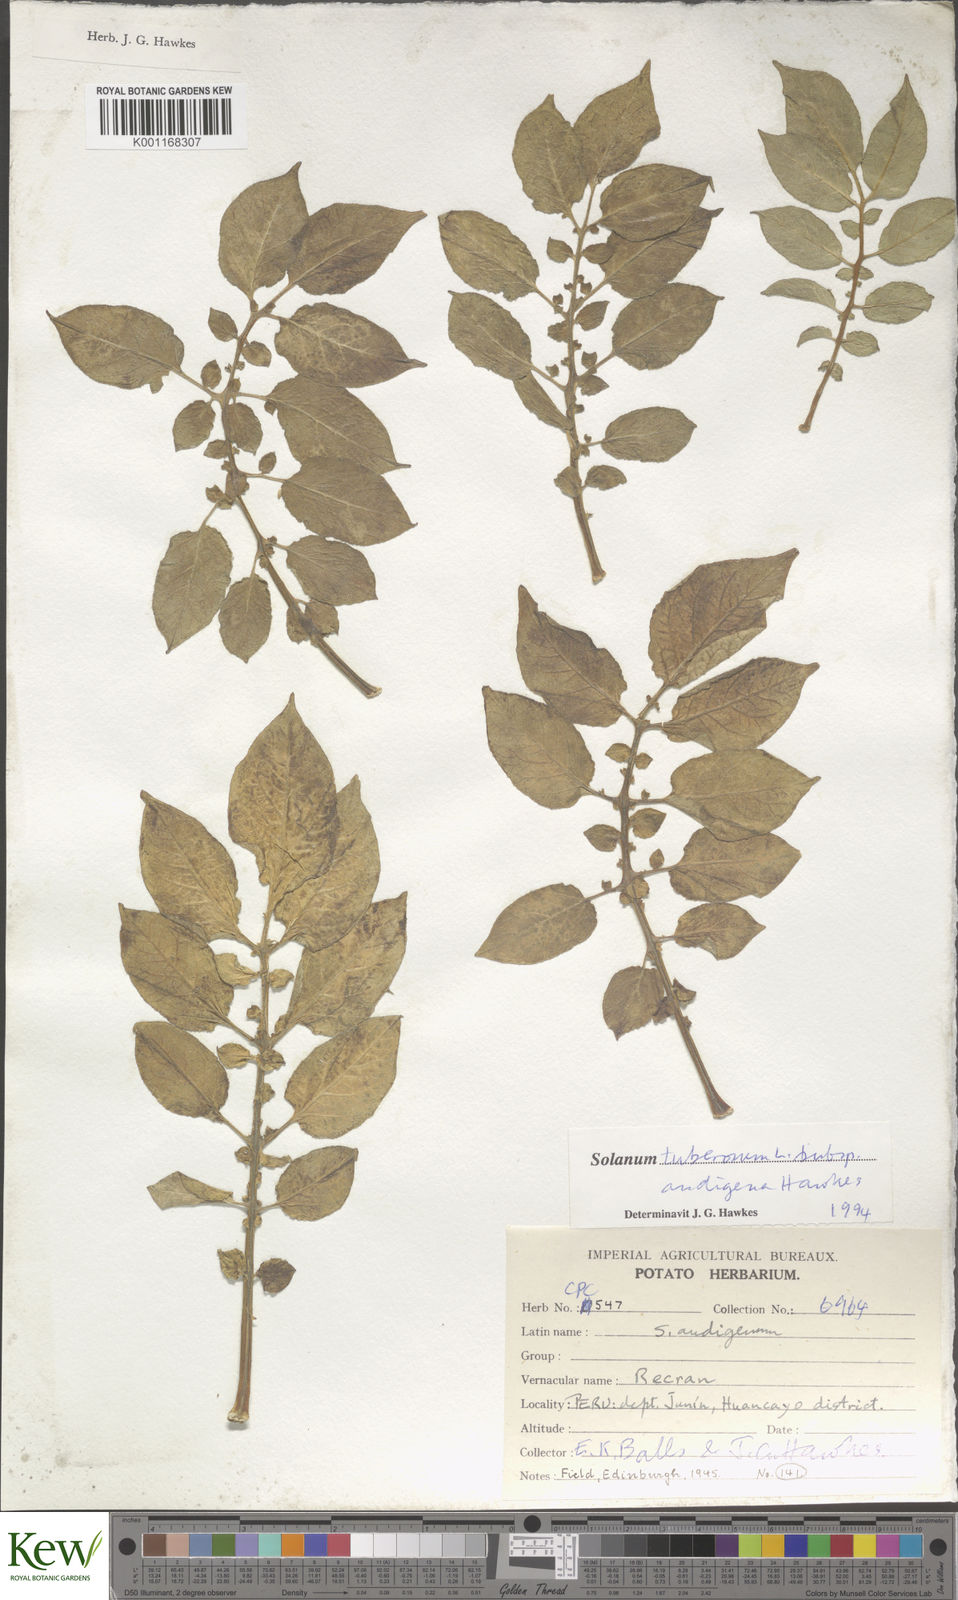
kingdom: Plantae
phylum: Tracheophyta
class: Magnoliopsida
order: Solanales
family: Solanaceae
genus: Solanum
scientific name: Solanum tuberosum
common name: Potato
